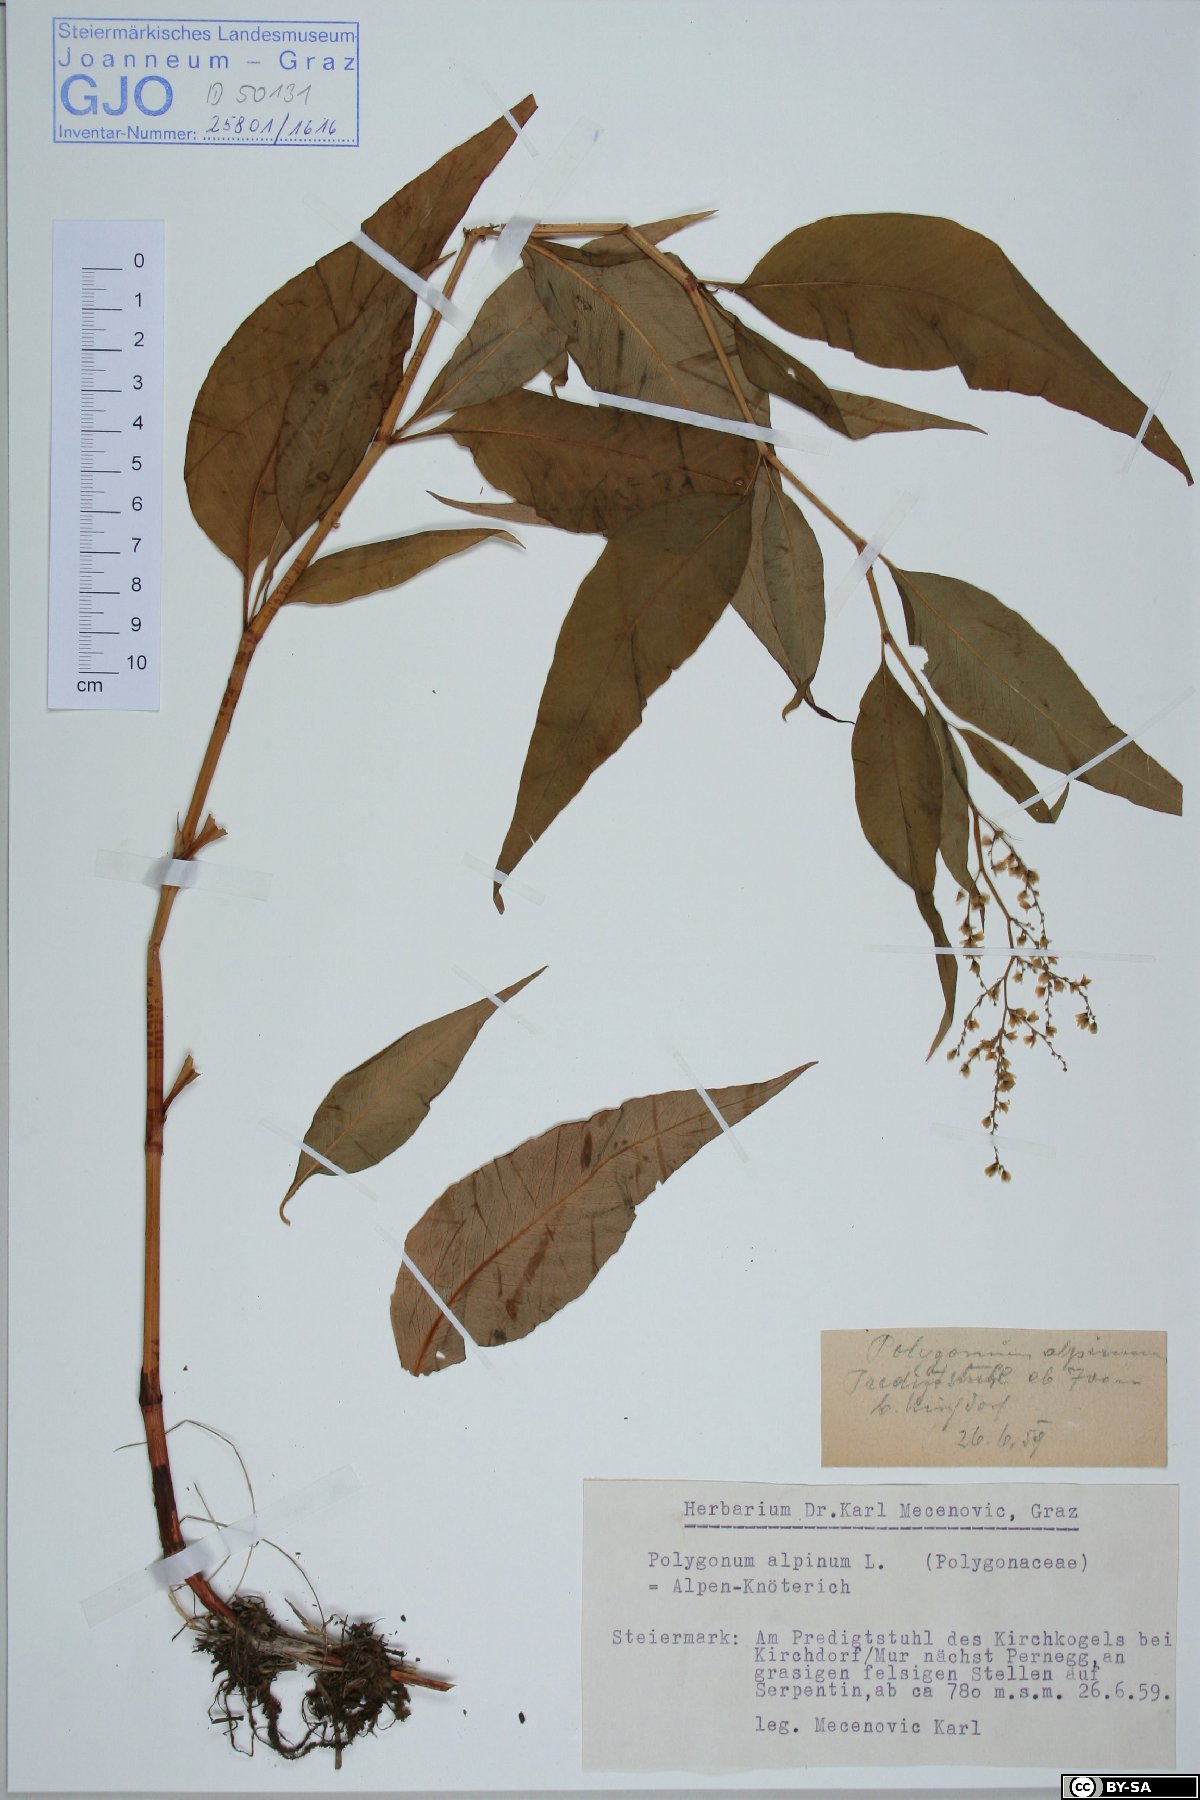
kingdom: Plantae
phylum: Tracheophyta
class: Magnoliopsida
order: Caryophyllales
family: Polygonaceae
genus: Koenigia
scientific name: Koenigia alpina
